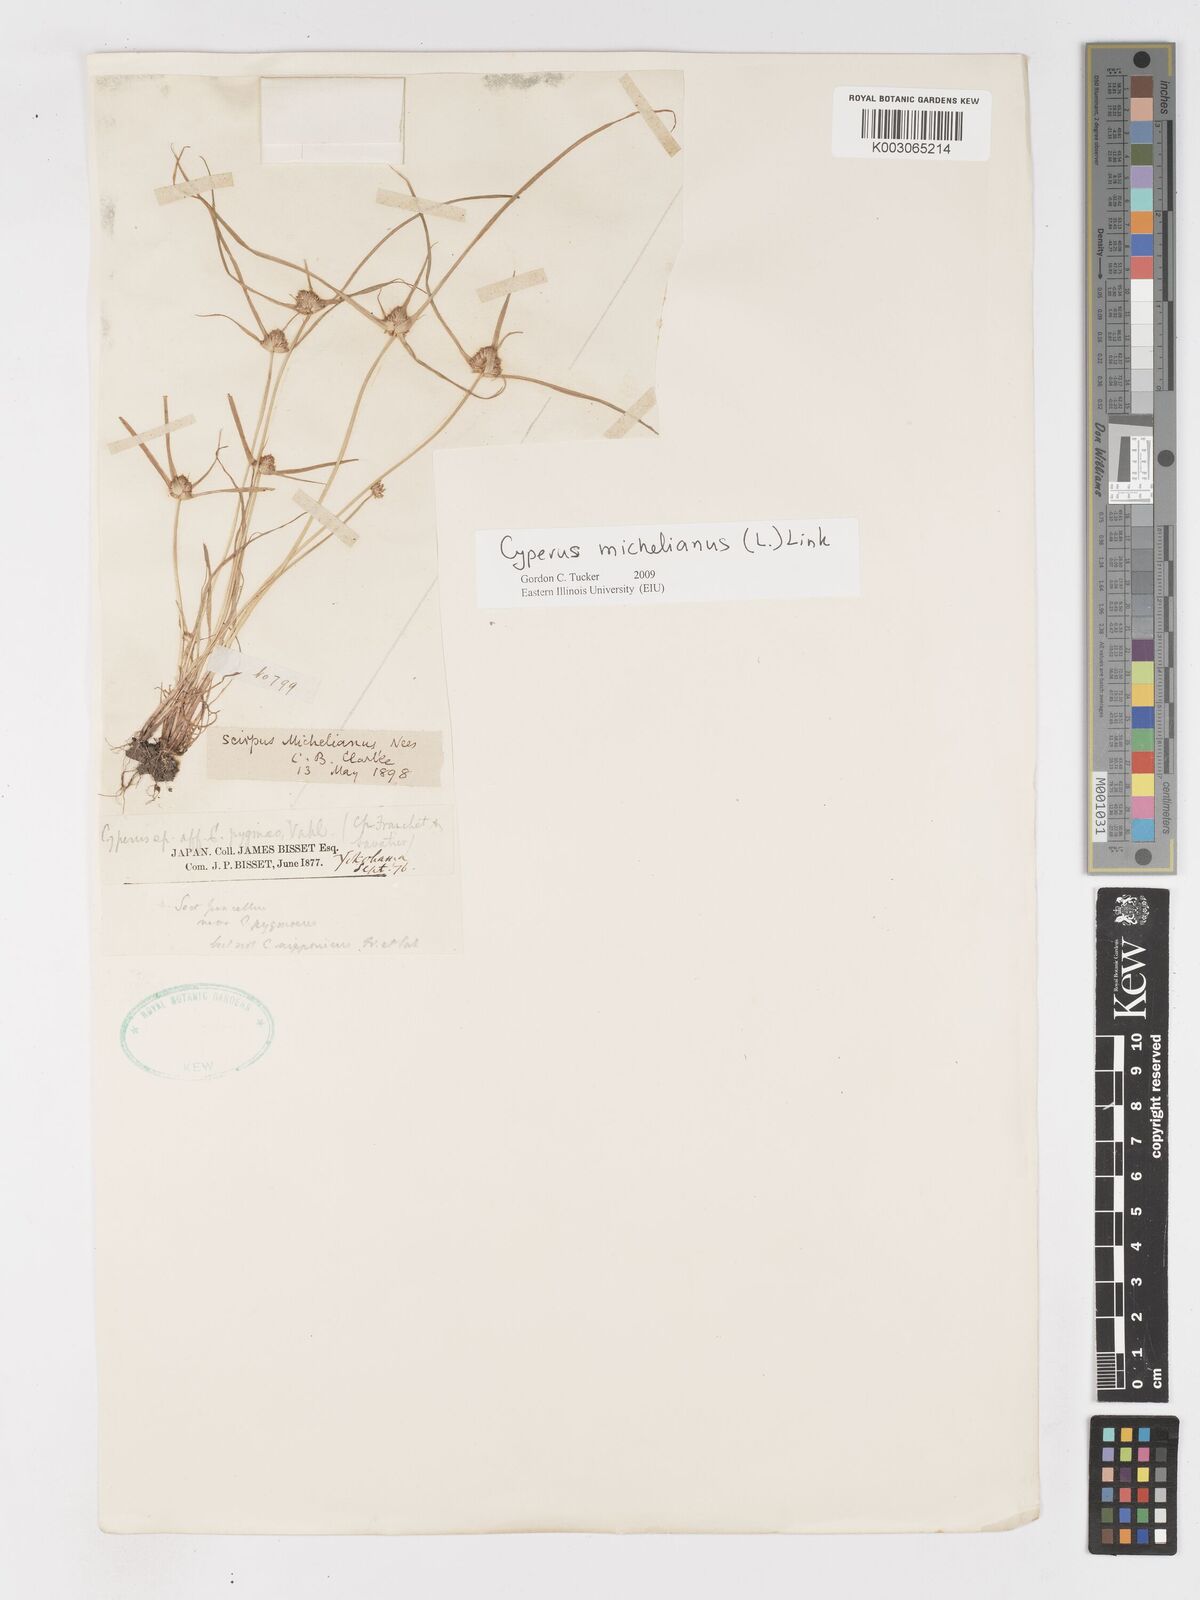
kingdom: Plantae
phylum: Tracheophyta
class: Liliopsida
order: Poales
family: Cyperaceae
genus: Cyperus
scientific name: Cyperus michelianus
